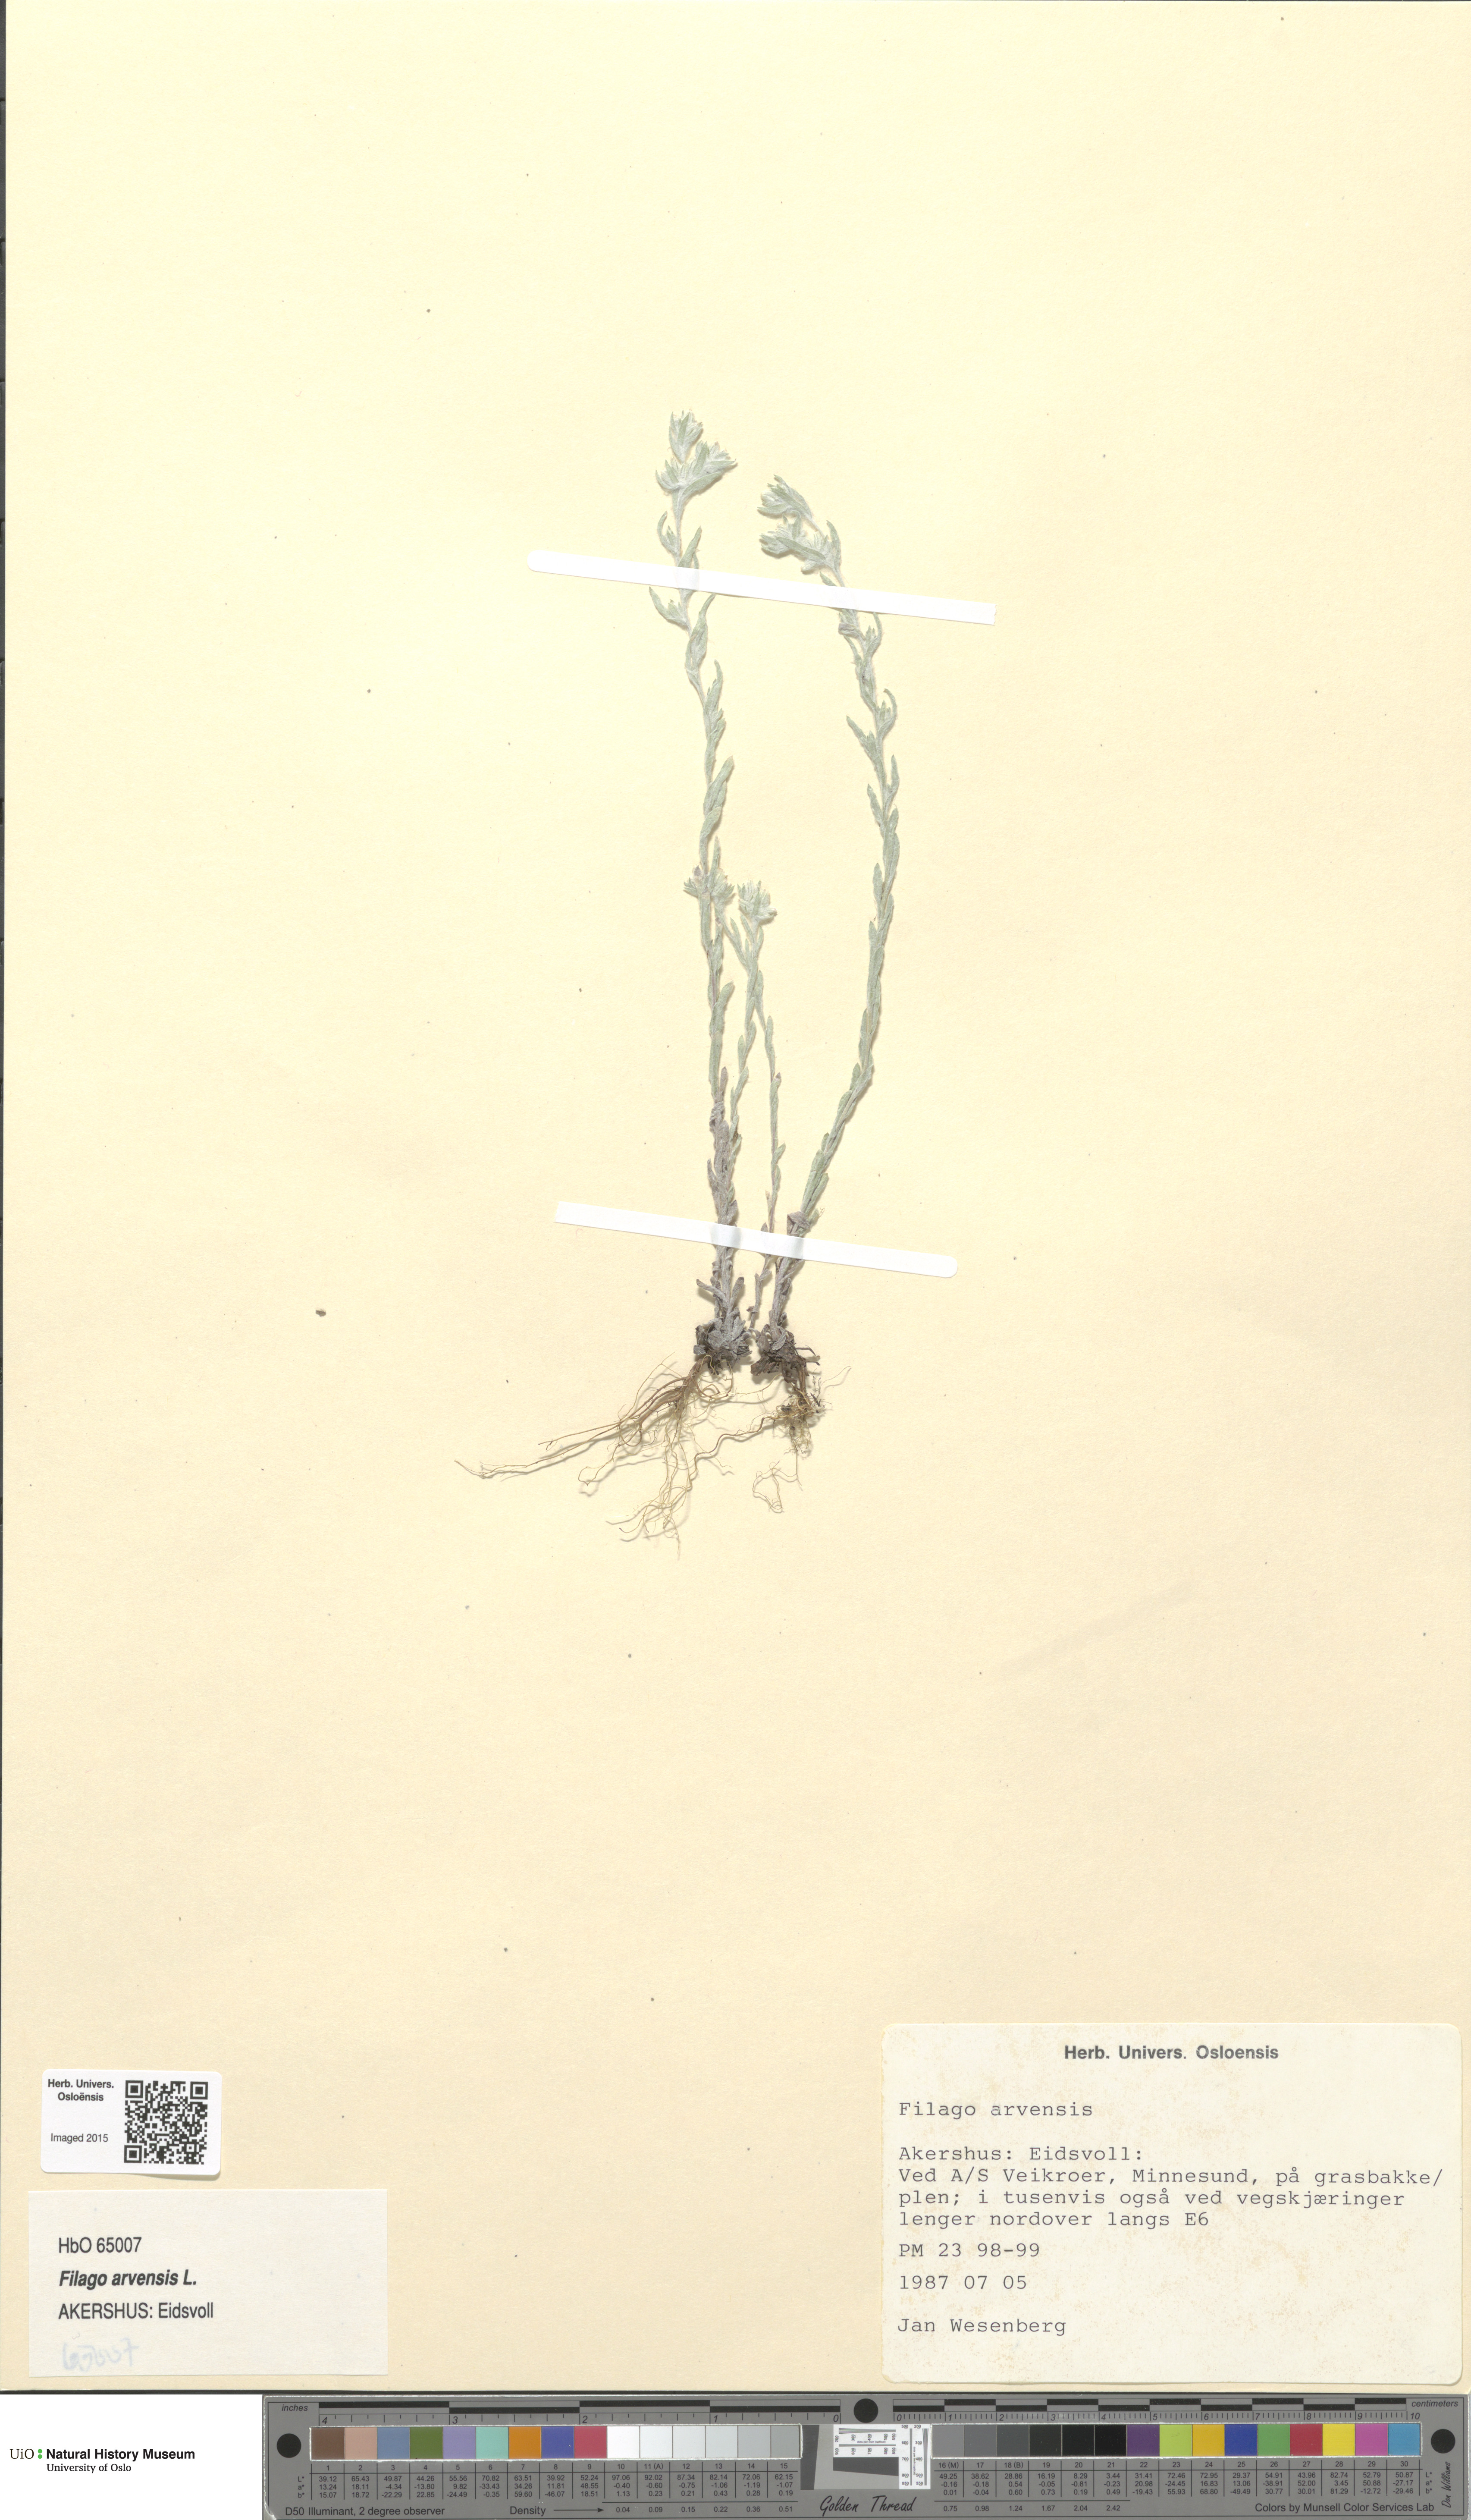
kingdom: Plantae
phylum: Tracheophyta
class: Magnoliopsida
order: Asterales
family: Asteraceae
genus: Filago
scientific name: Filago arvensis
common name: Field cudweed
